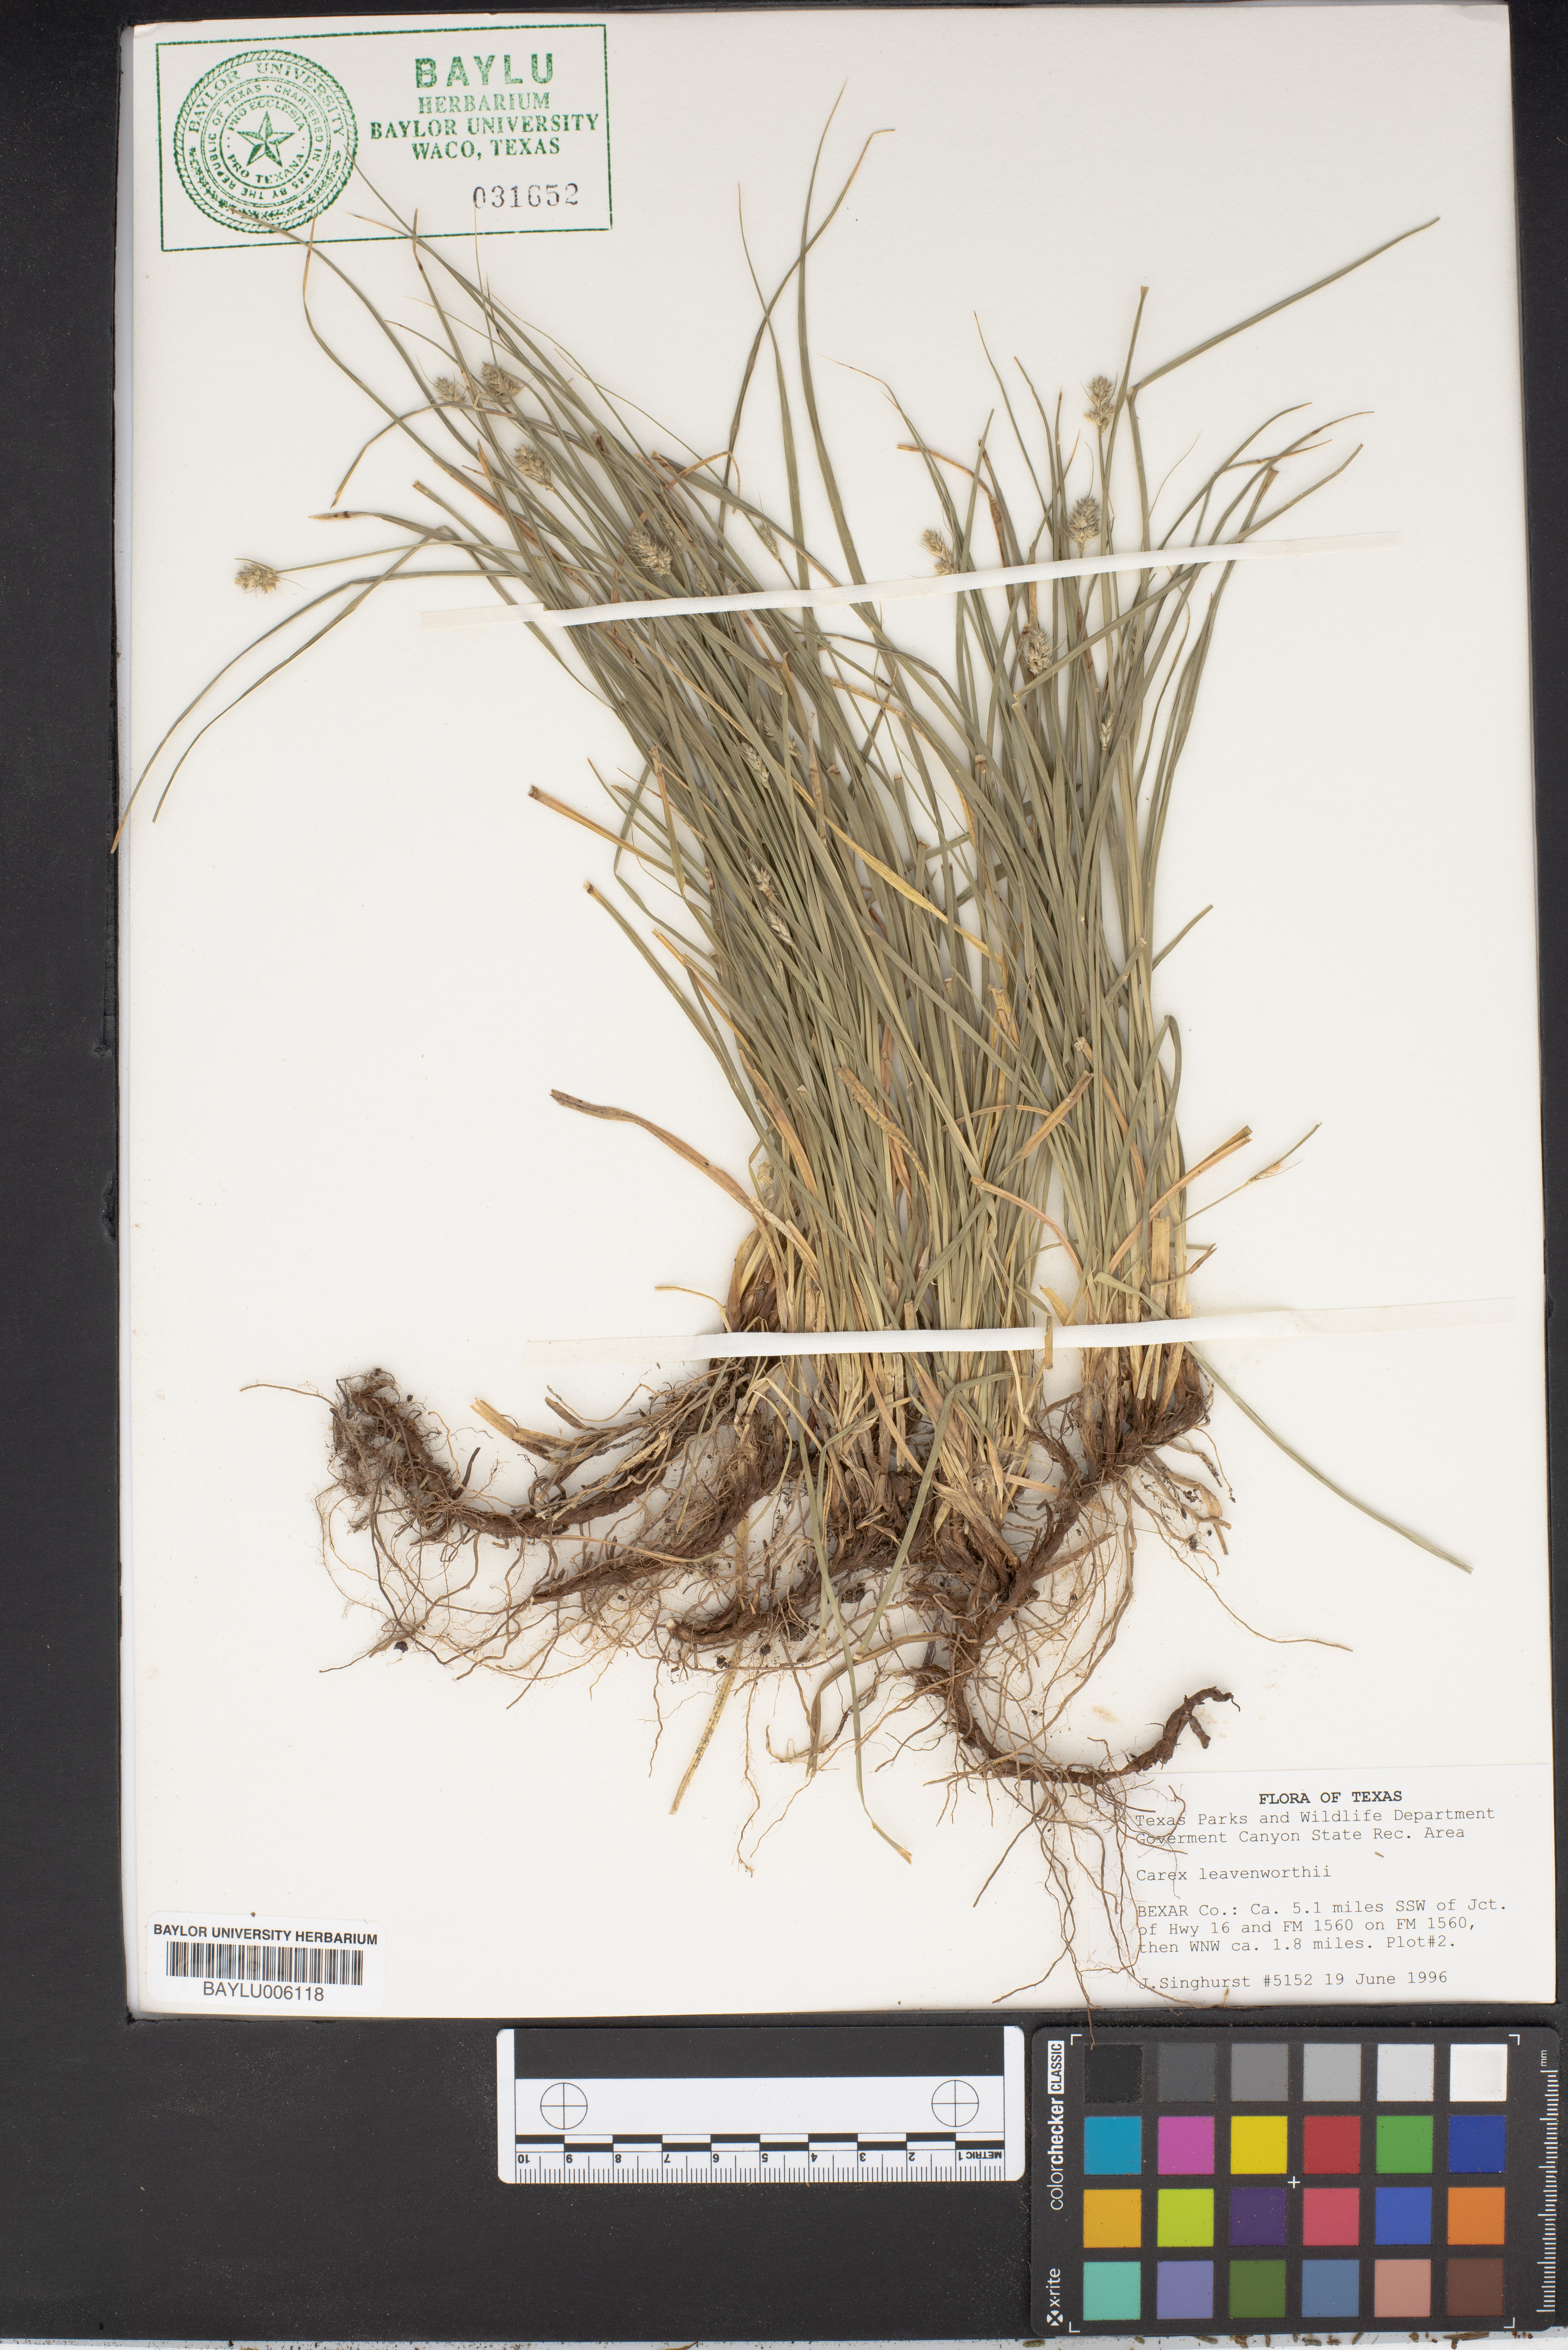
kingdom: Plantae
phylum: Tracheophyta
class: Liliopsida
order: Poales
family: Cyperaceae
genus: Carex
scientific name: Carex leavenworthii
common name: Leavenworth's bracted sedge
